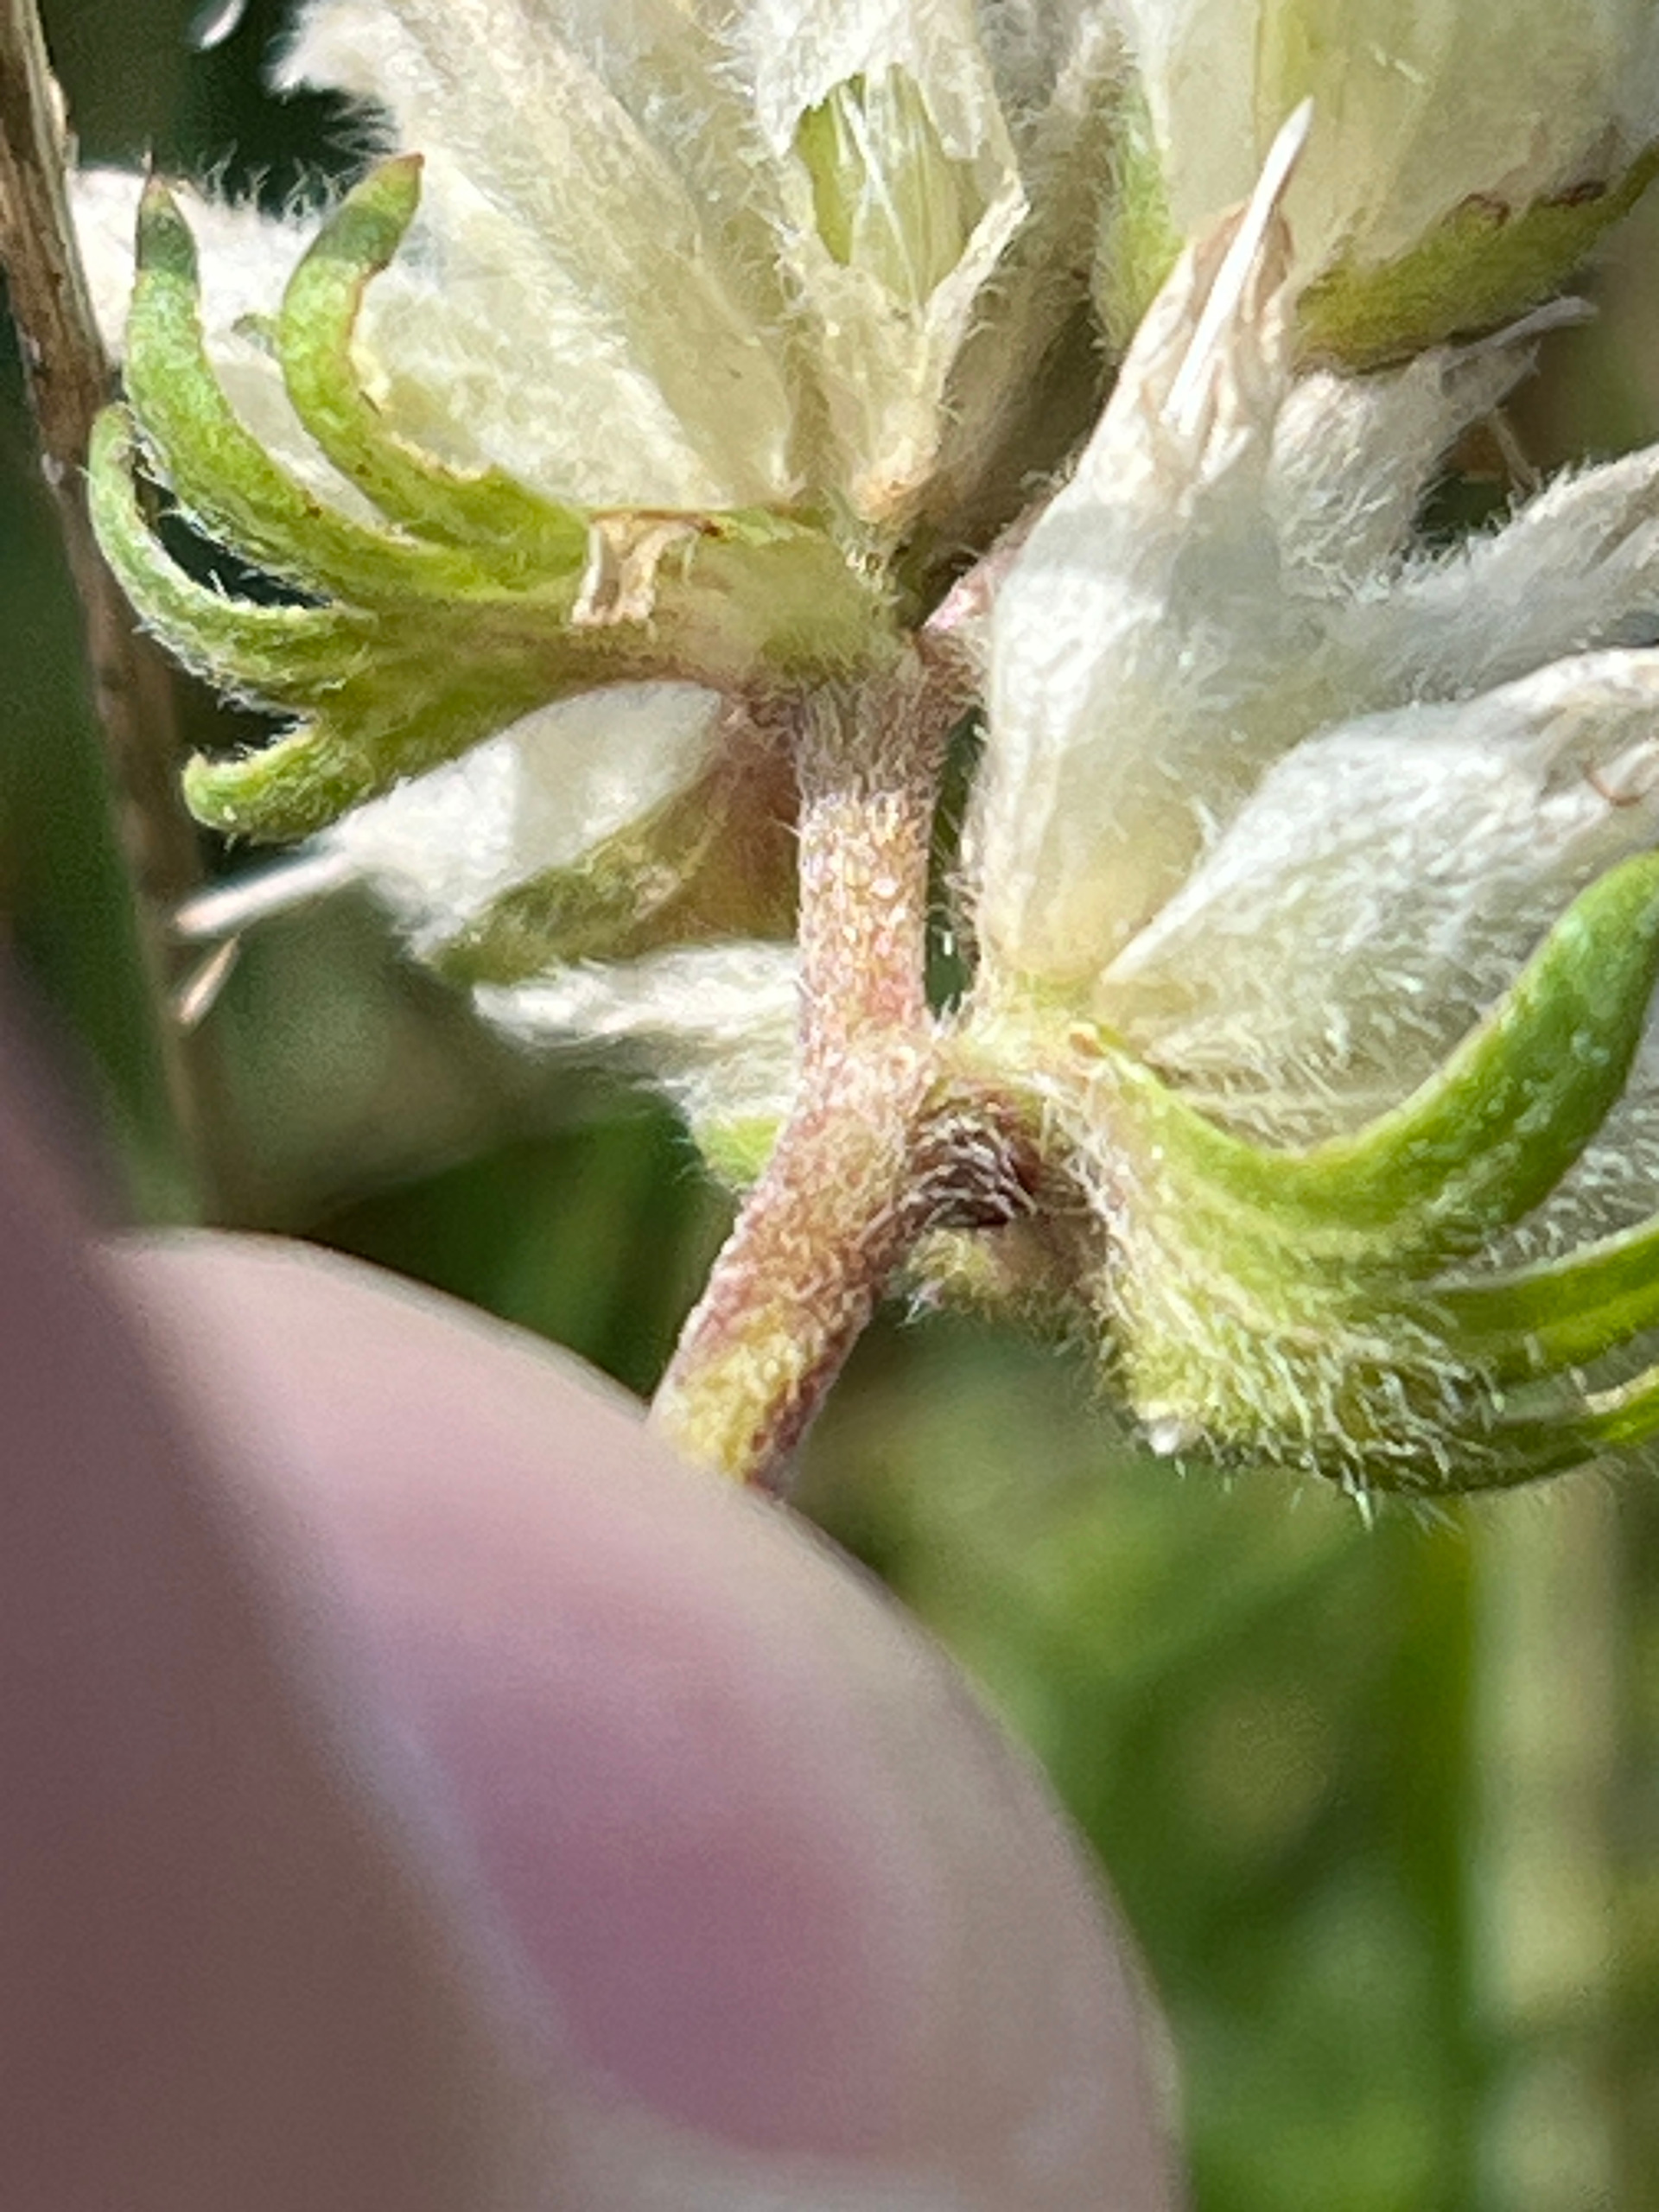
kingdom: Plantae
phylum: Tracheophyta
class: Magnoliopsida
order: Fabales
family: Fabaceae
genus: Anthyllis
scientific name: Anthyllis vulneraria
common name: Rundbælg
